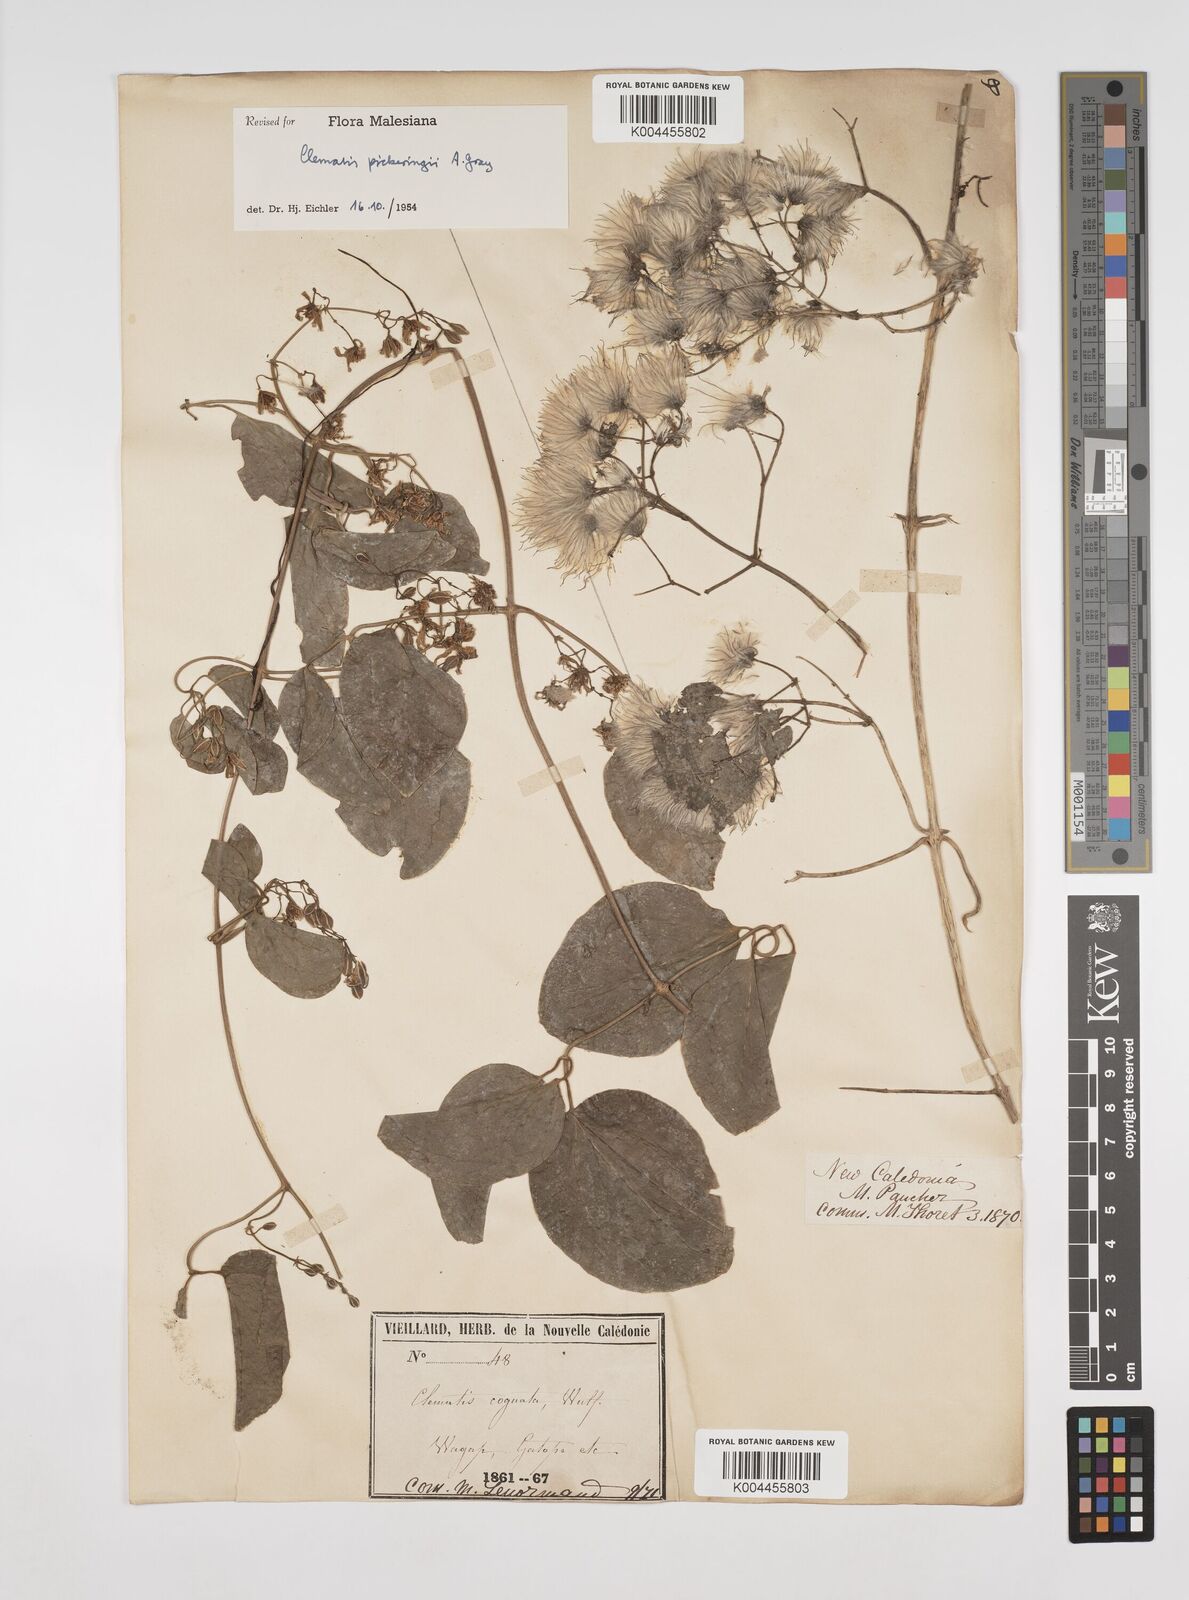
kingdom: Plantae
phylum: Tracheophyta
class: Magnoliopsida
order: Ranunculales
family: Ranunculaceae
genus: Clematis
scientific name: Clematis pickeringii
